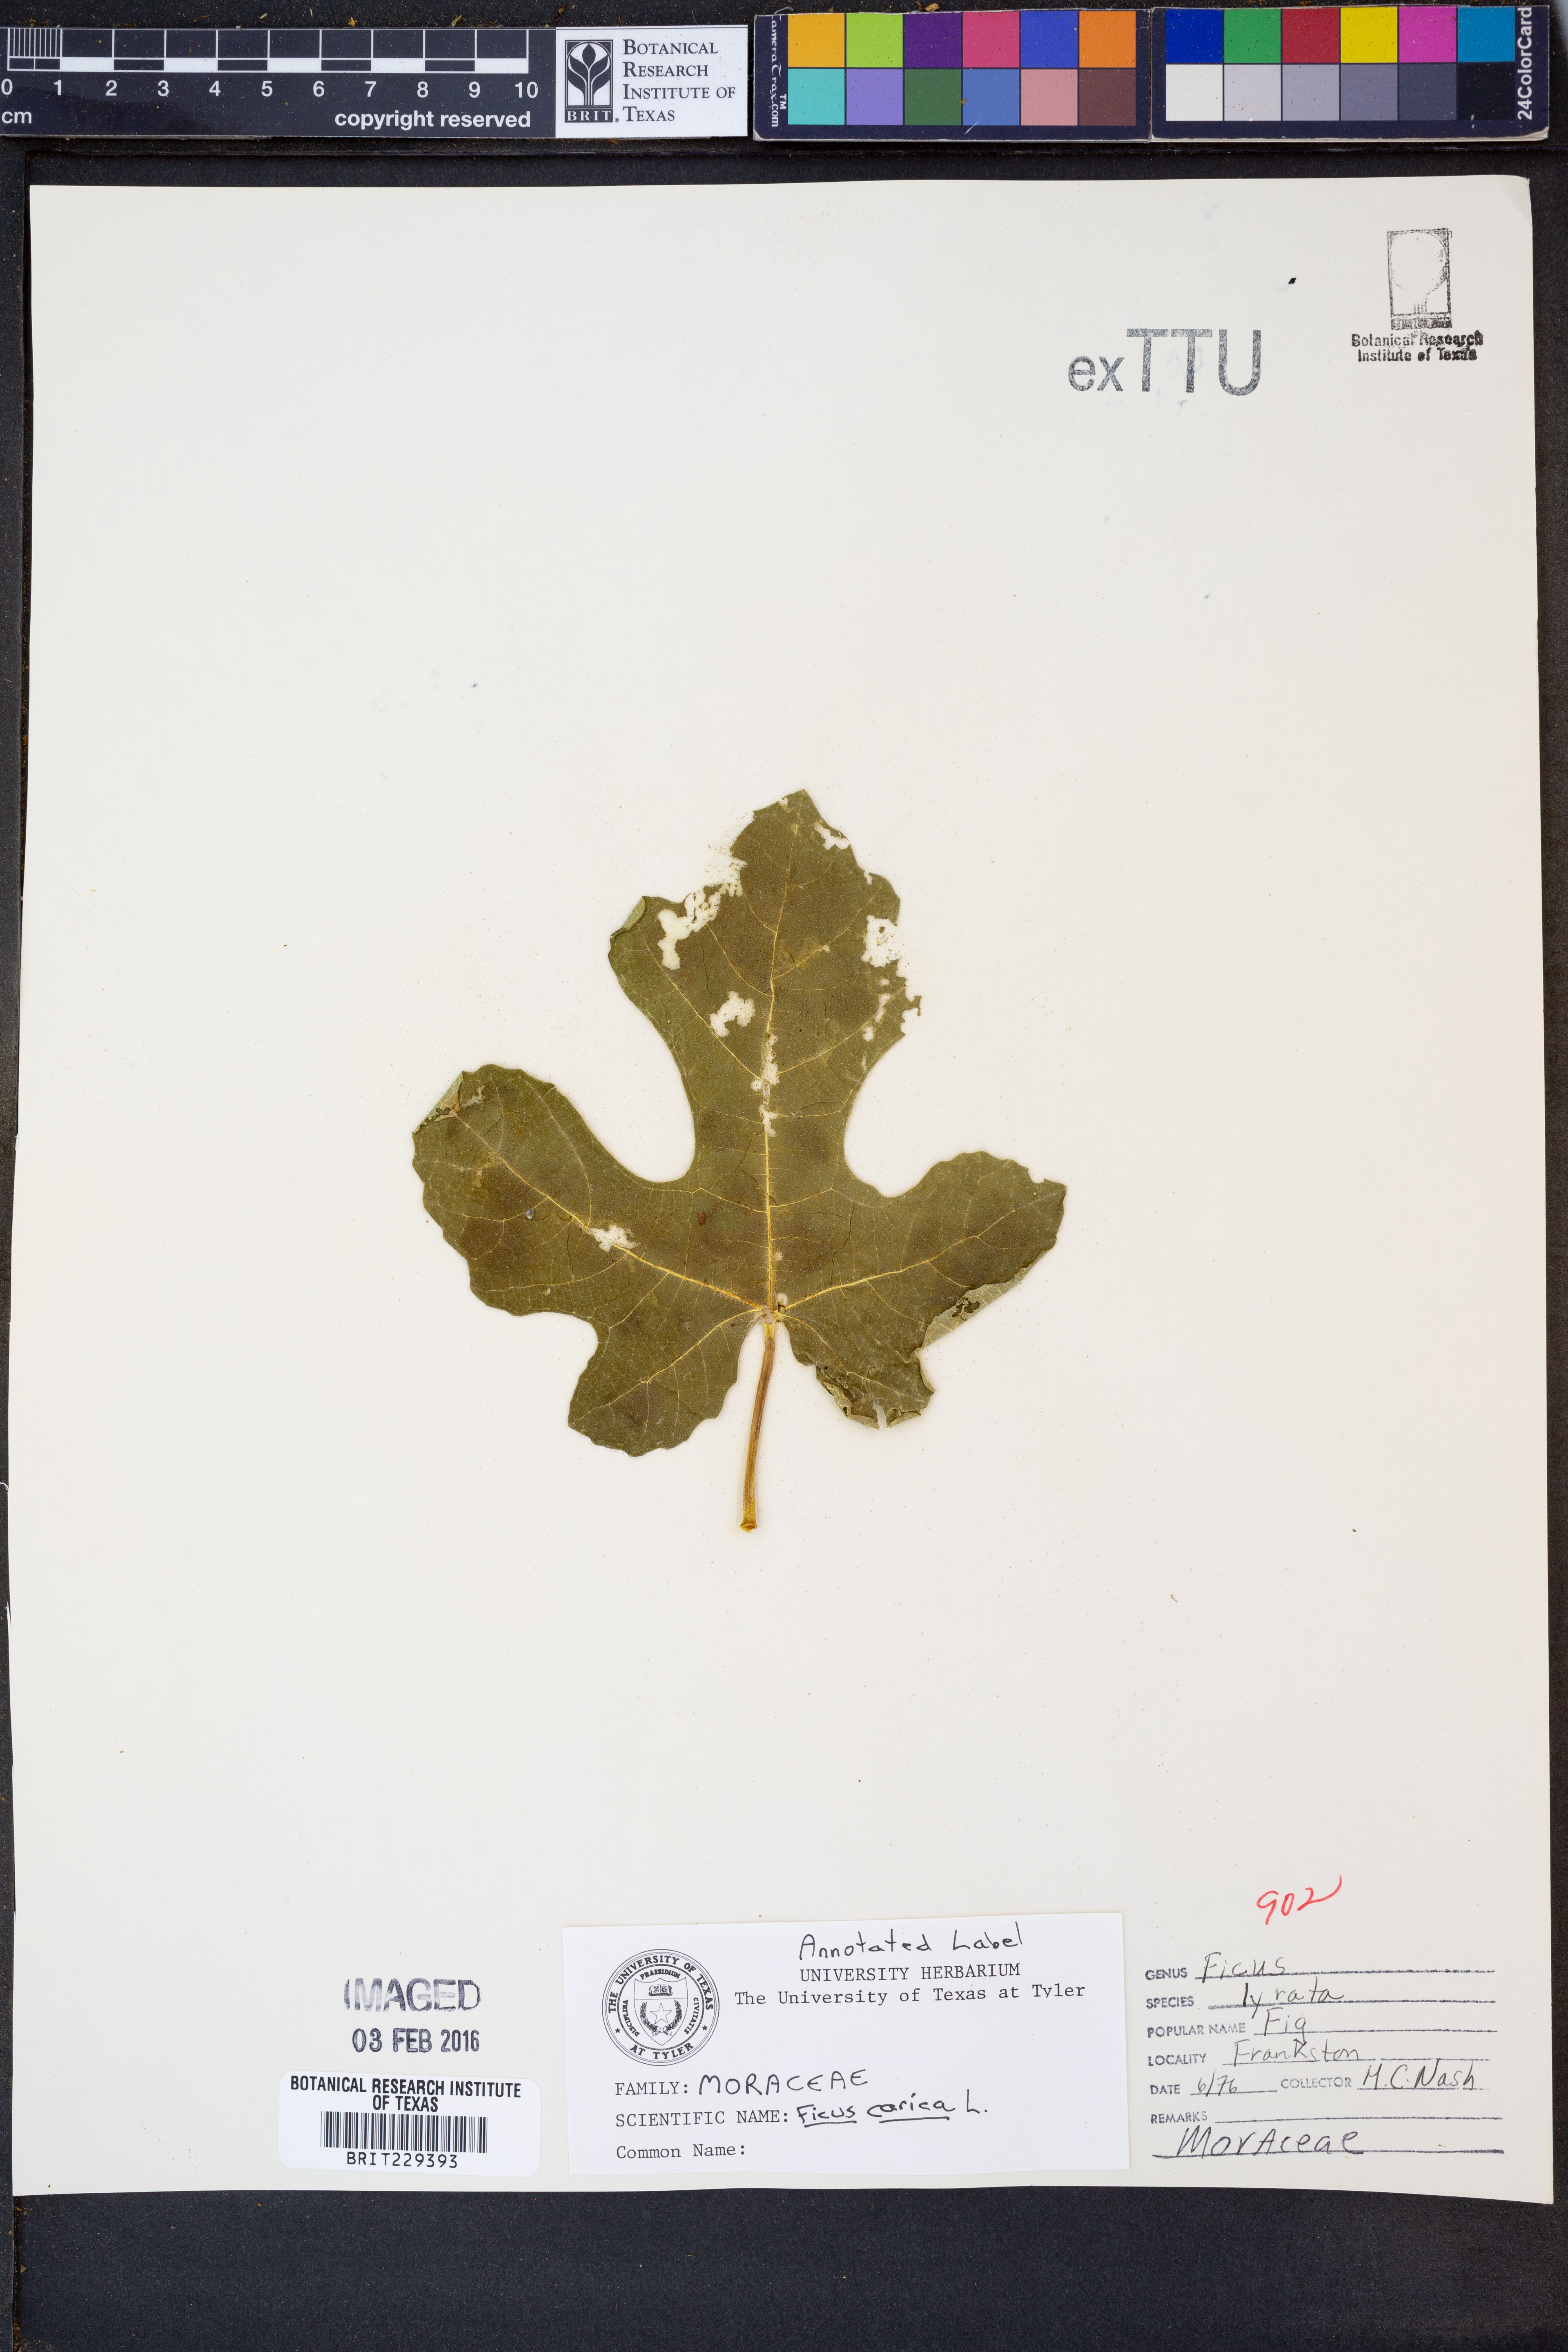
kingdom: Plantae
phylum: Tracheophyta
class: Magnoliopsida
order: Rosales
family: Moraceae
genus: Ficus
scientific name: Ficus carica
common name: Fig
